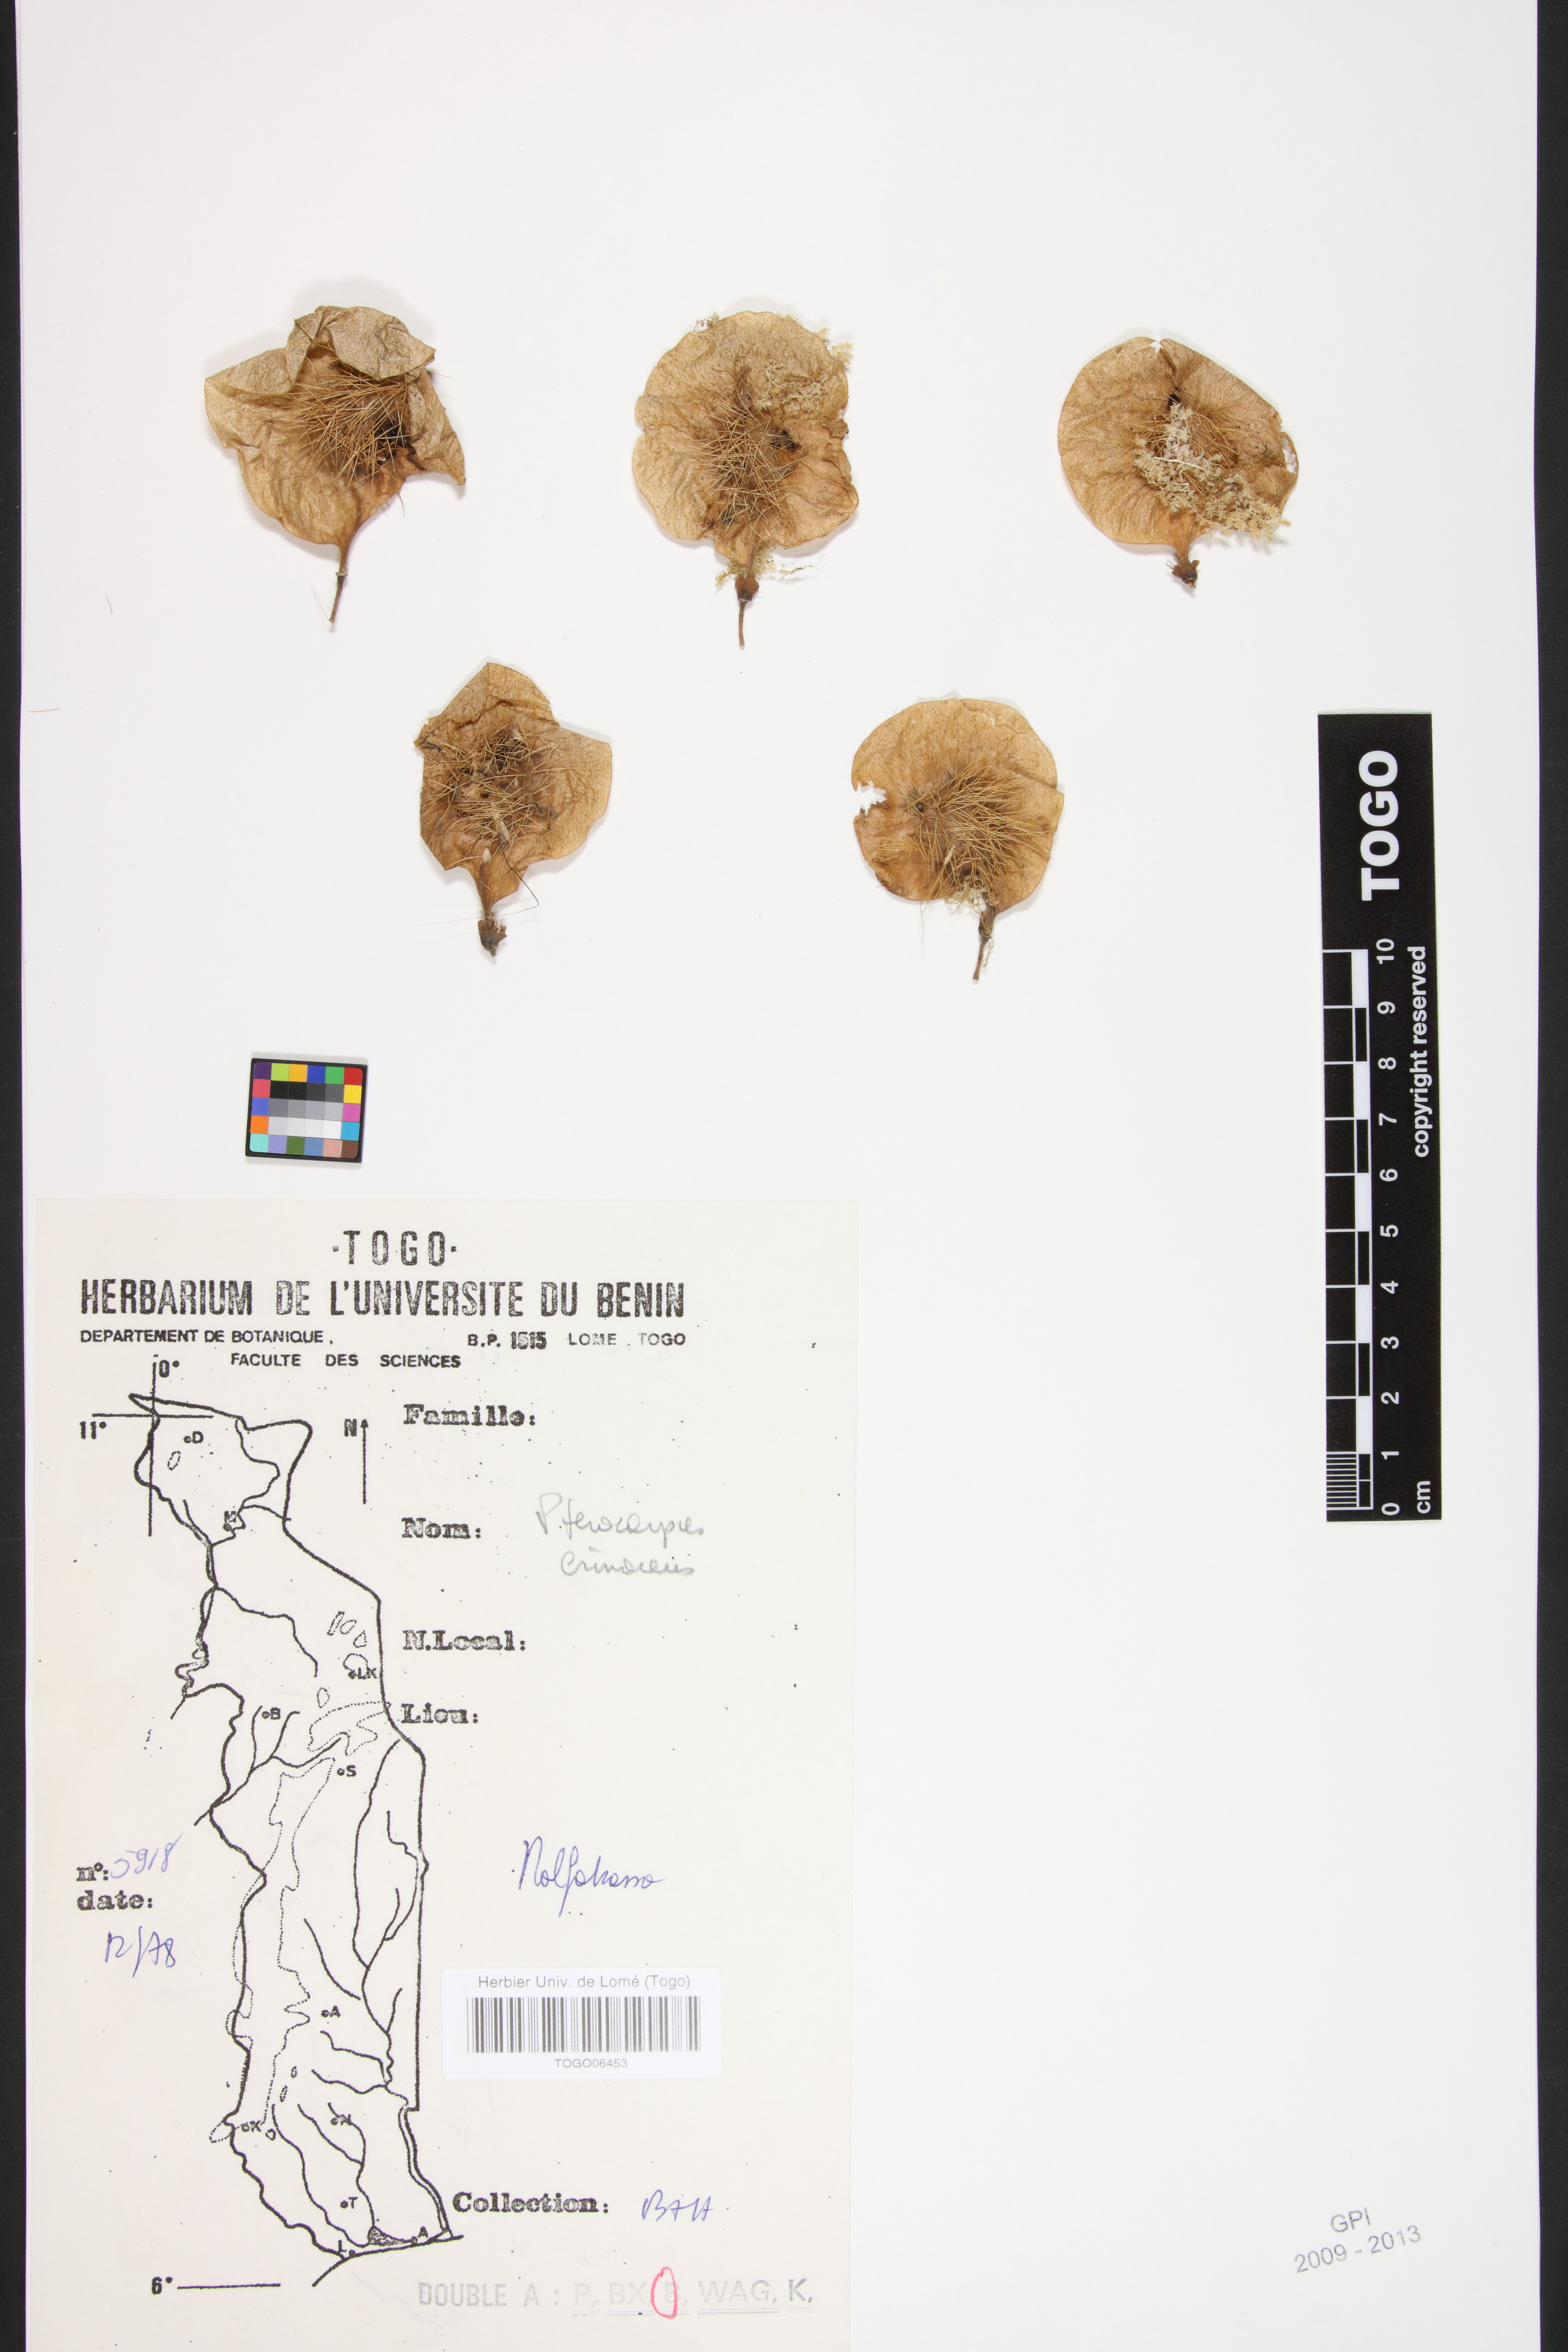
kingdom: Plantae
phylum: Tracheophyta
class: Magnoliopsida
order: Fabales
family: Fabaceae
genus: Pterocarpus
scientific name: Pterocarpus erinaceus
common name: African rosewood
